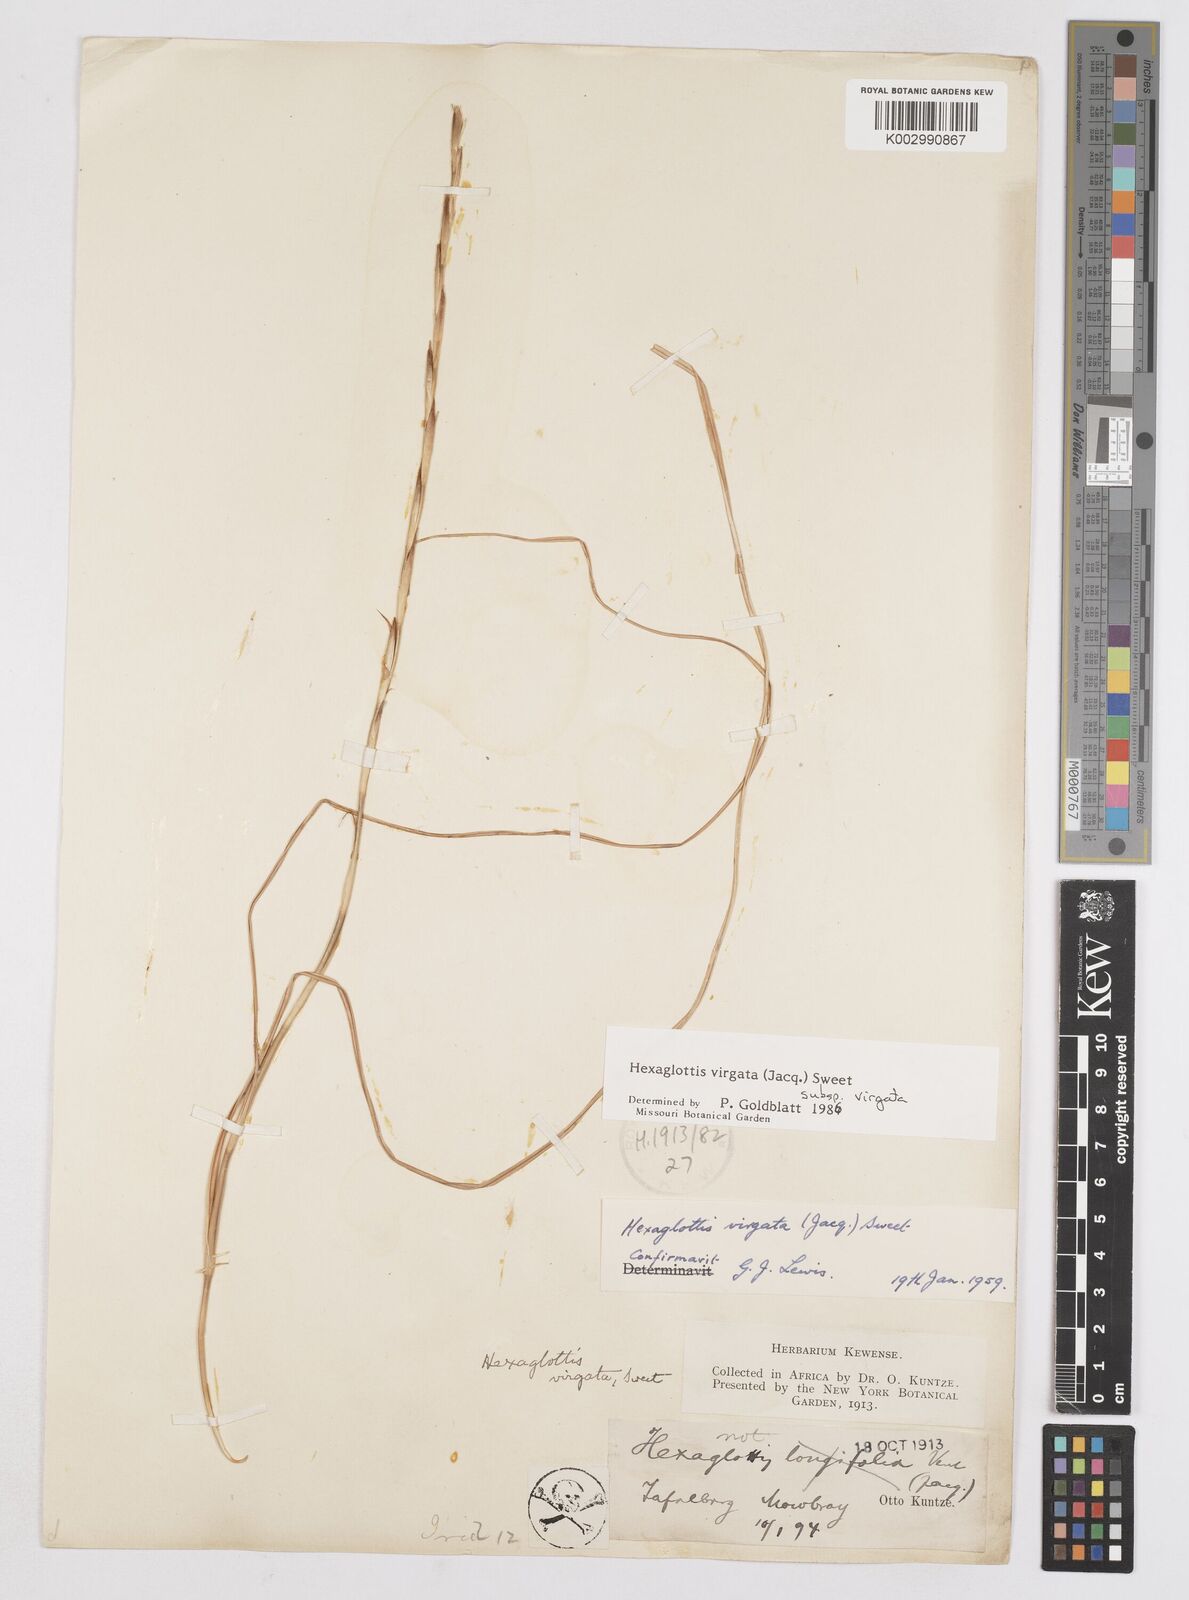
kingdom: Plantae
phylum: Tracheophyta
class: Liliopsida
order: Asparagales
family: Iridaceae
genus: Moraea
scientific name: Moraea virgata
